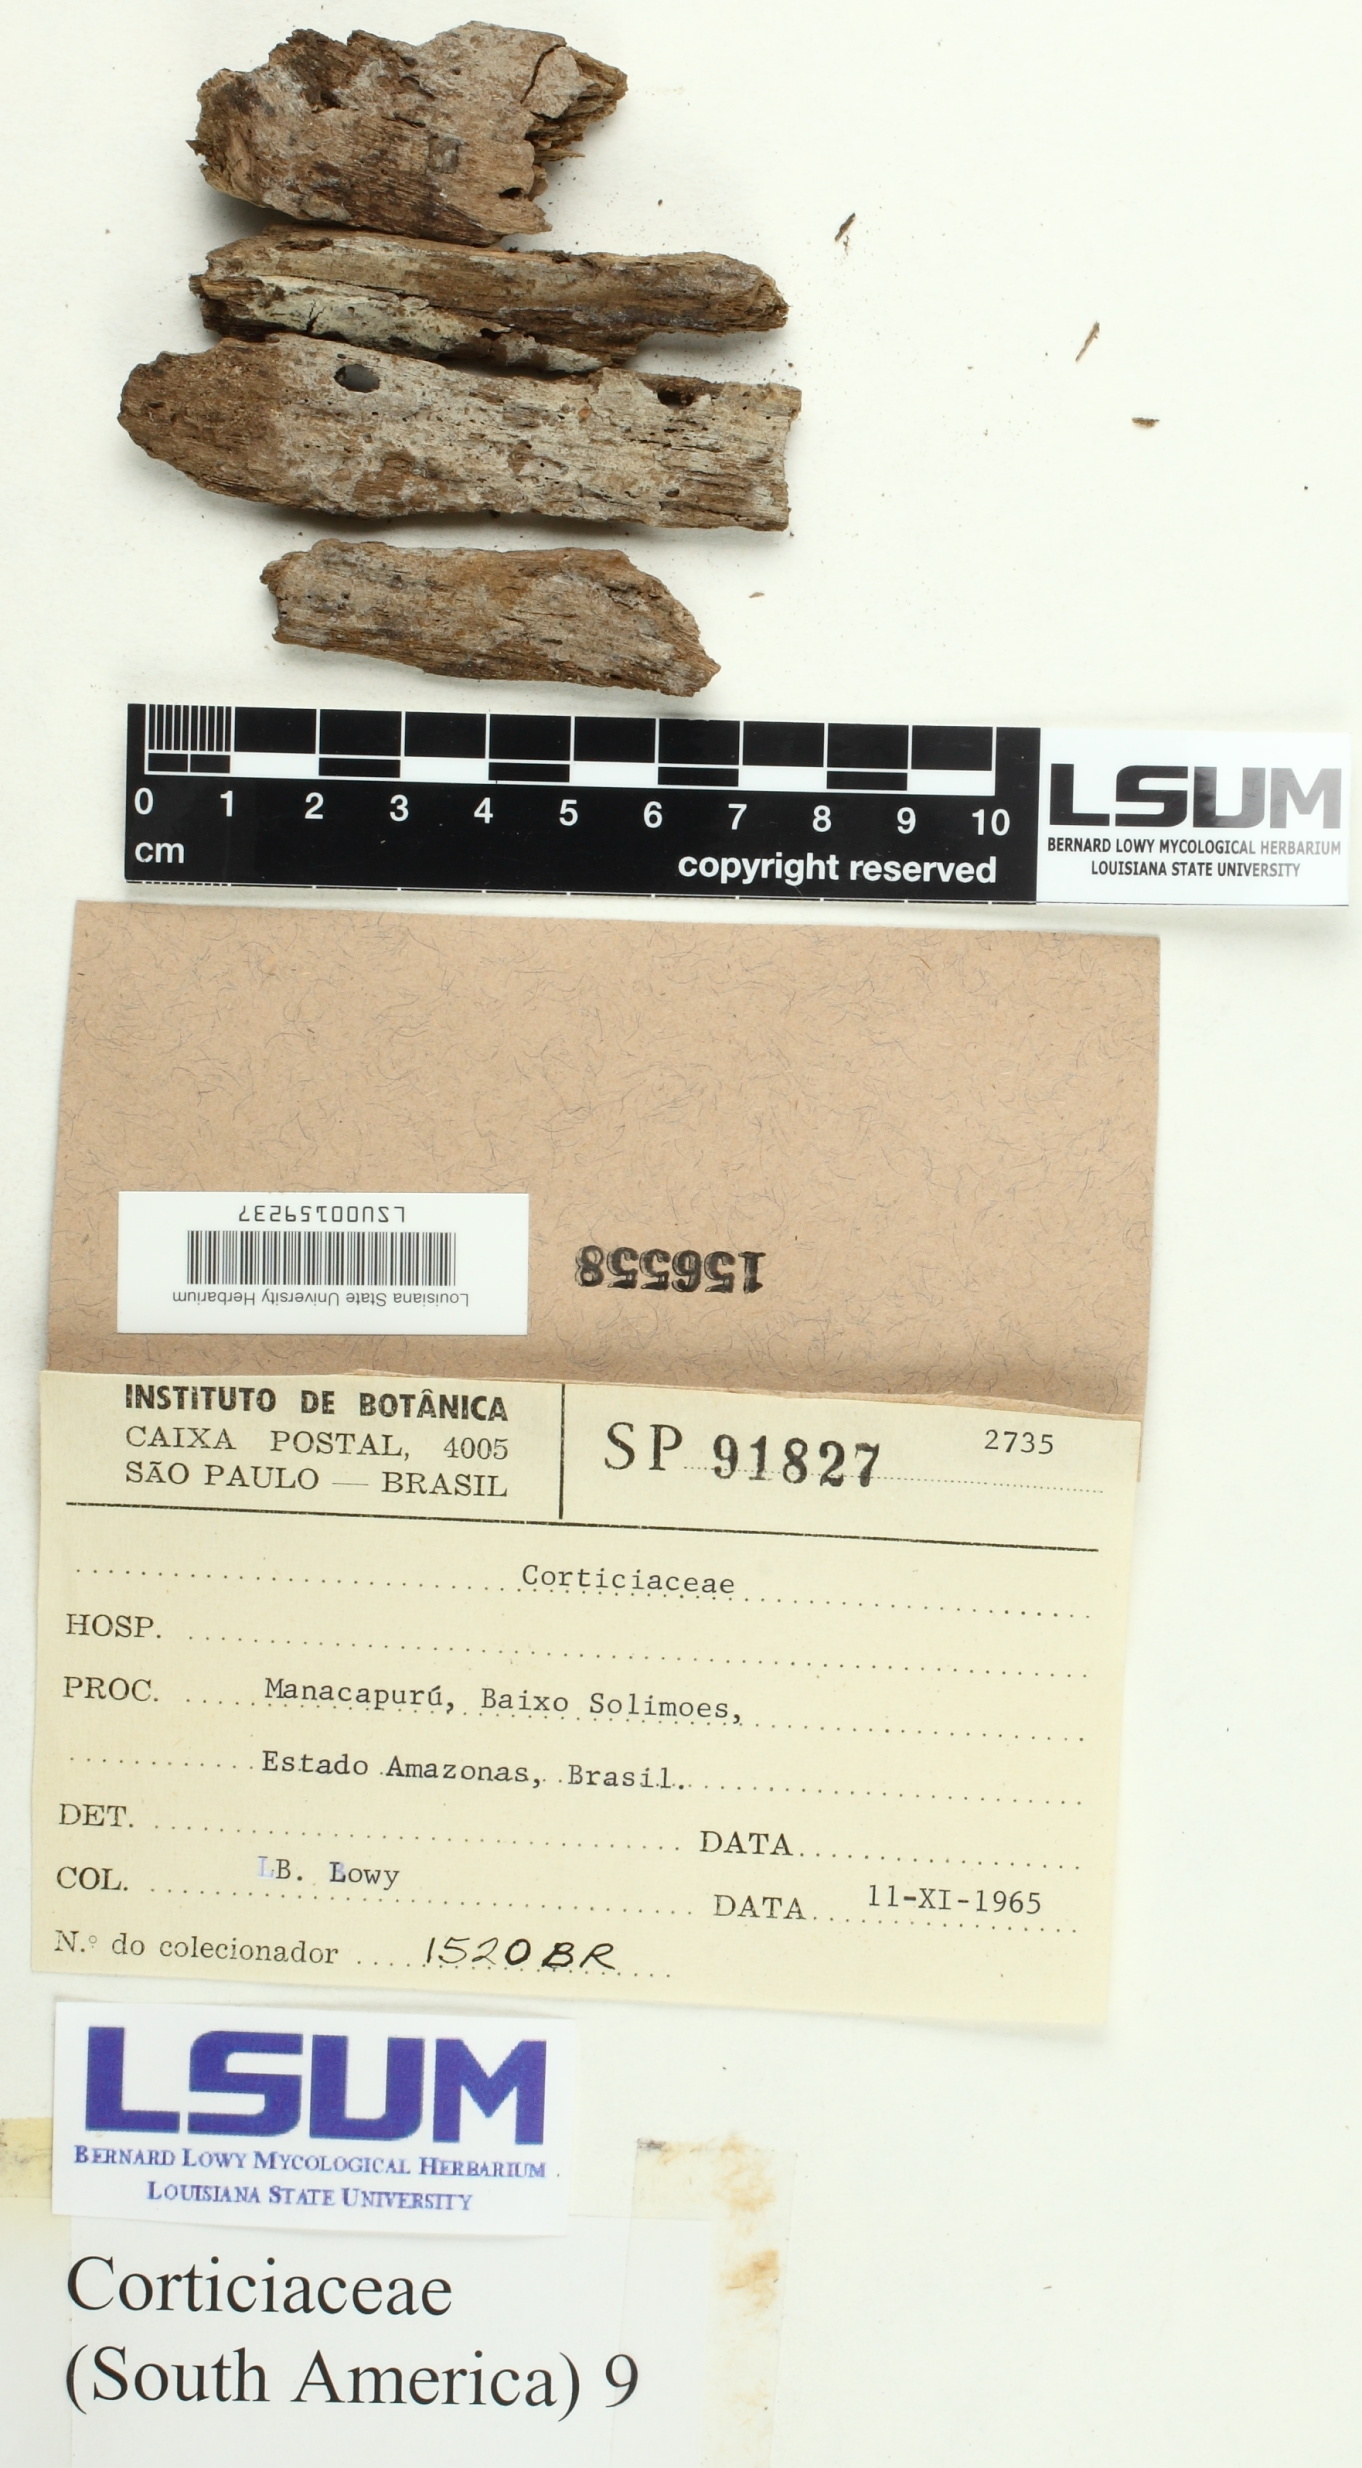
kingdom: Fungi
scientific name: Fungi
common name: Fungi
